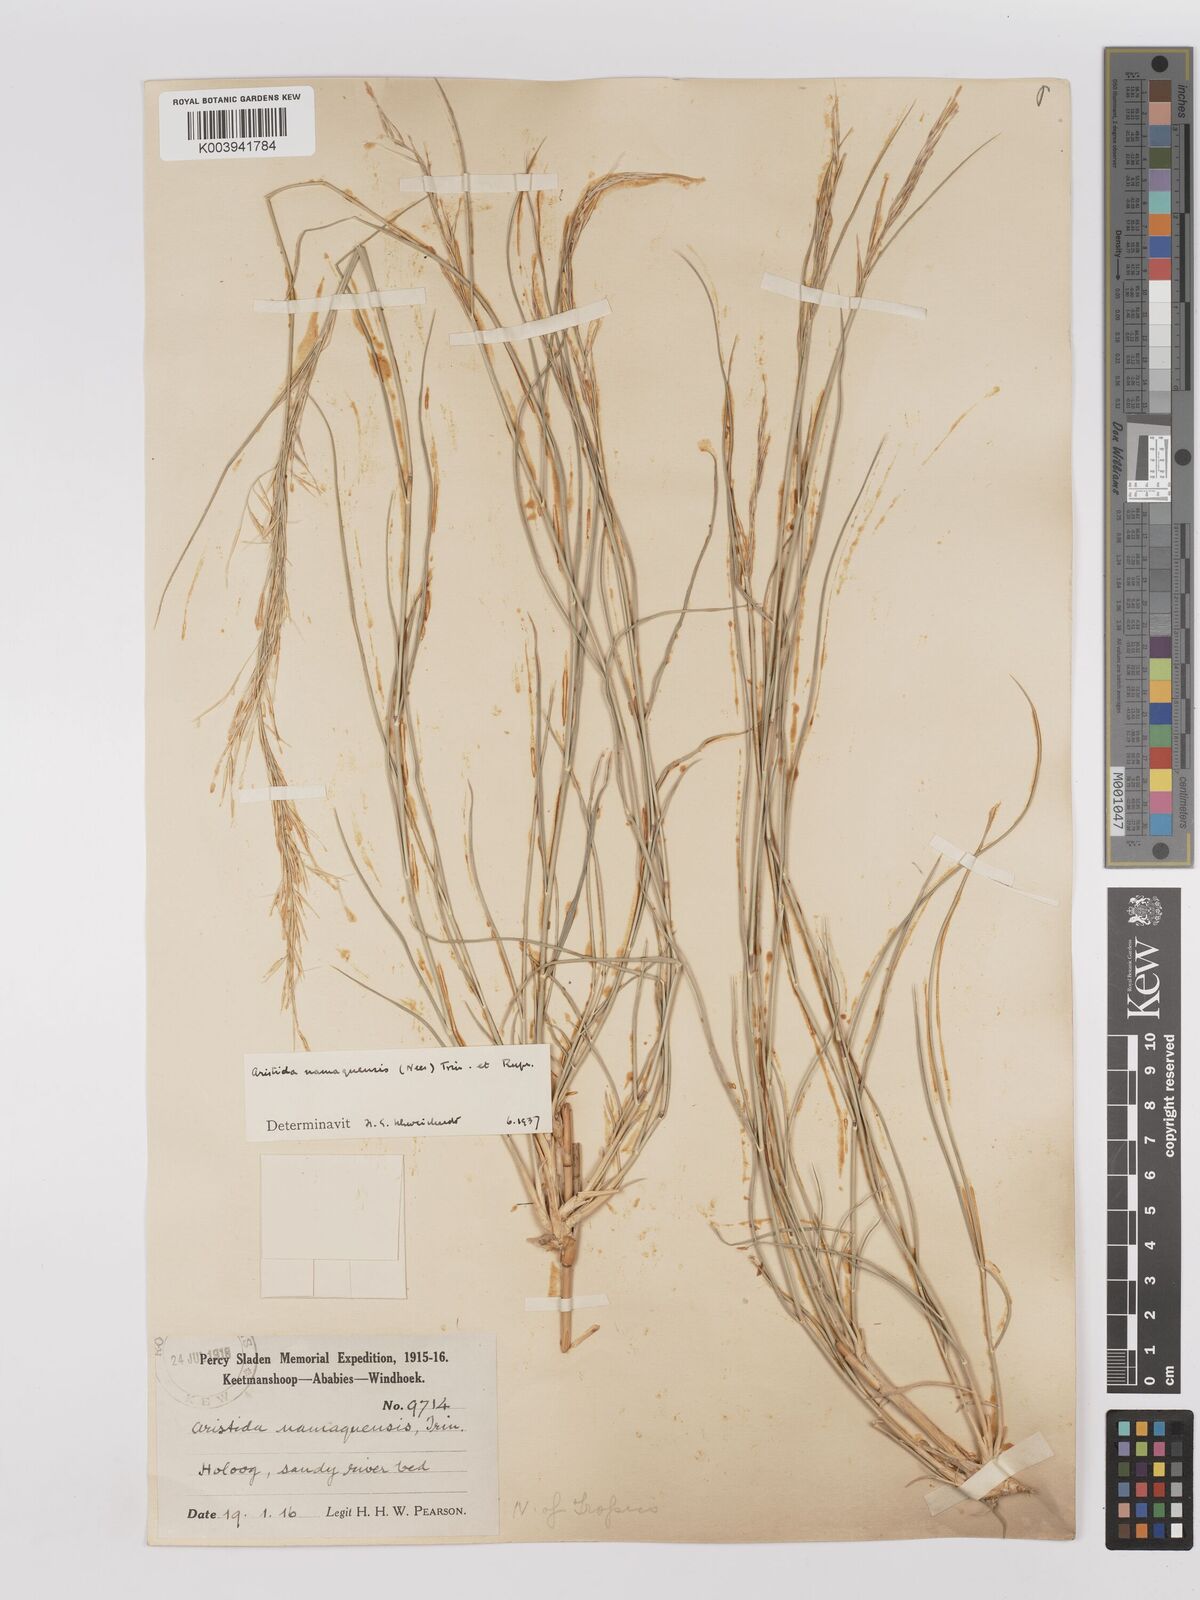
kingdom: Plantae
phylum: Tracheophyta
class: Liliopsida
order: Poales
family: Poaceae
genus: Stipagrostis
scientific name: Stipagrostis namaquensis
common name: River bushman grass
